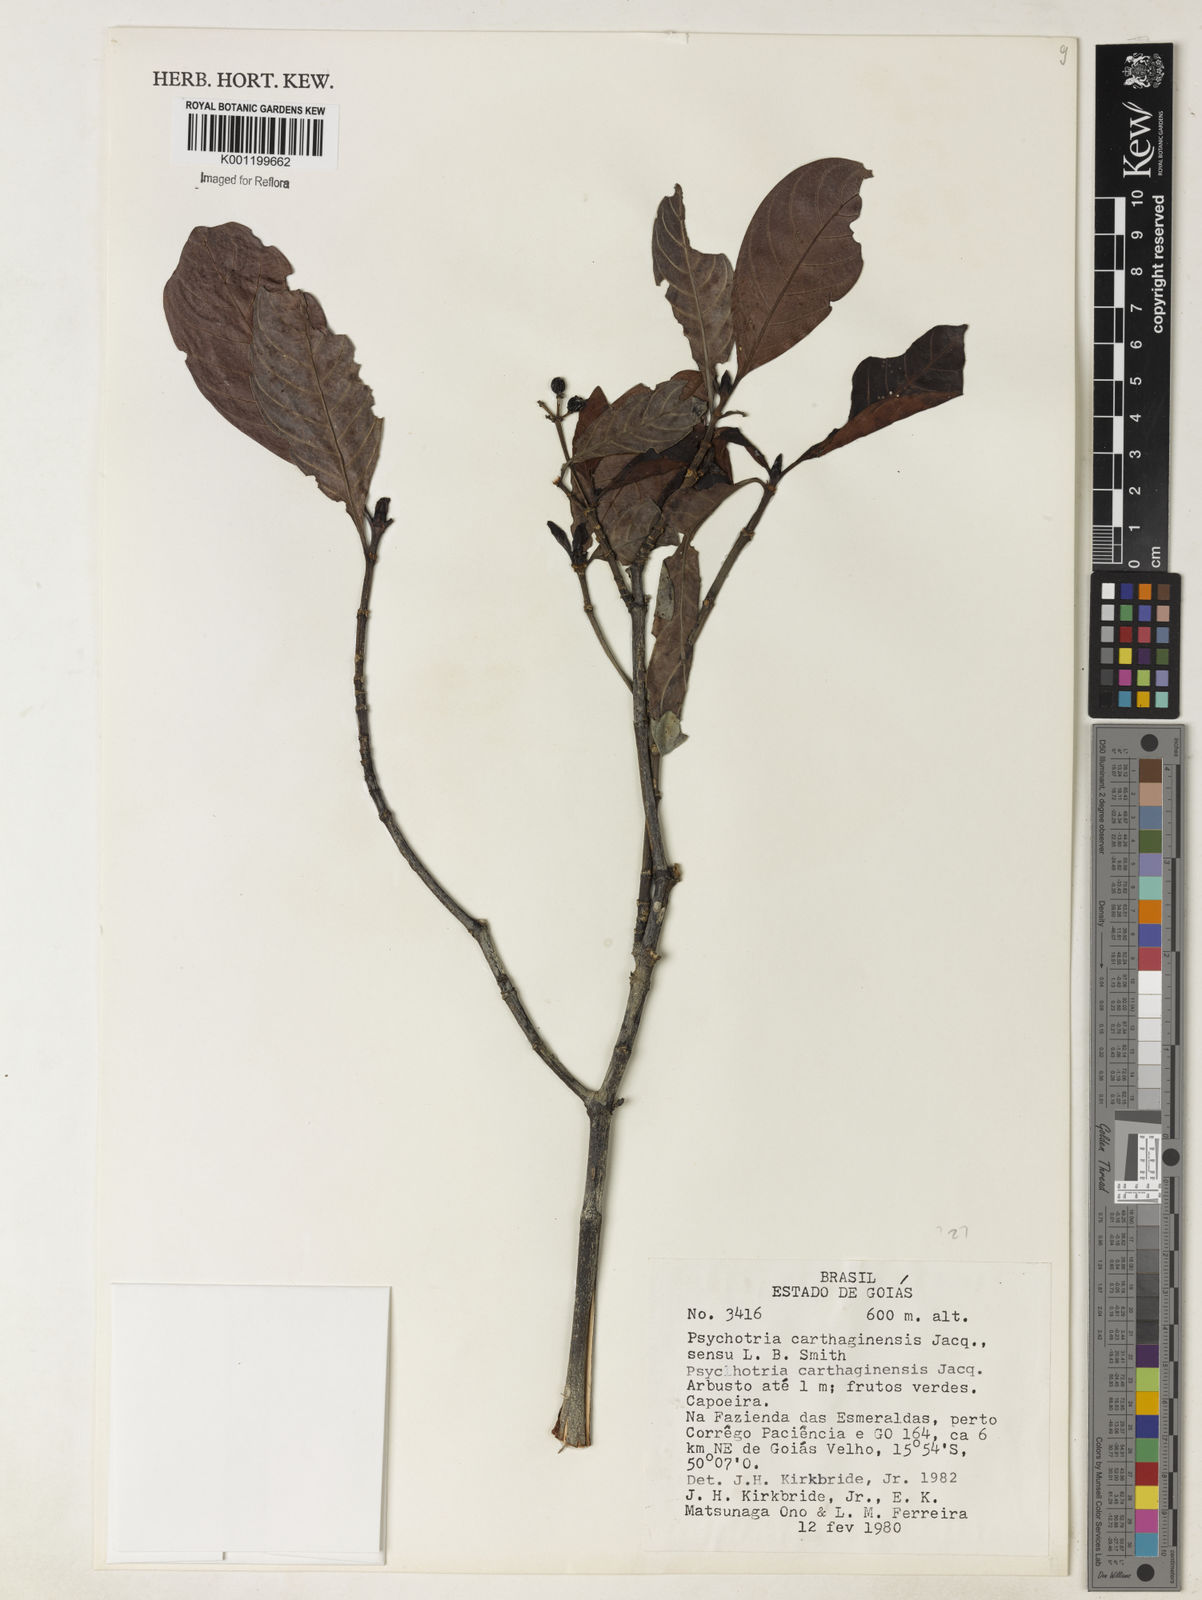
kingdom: Plantae
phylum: Tracheophyta
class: Magnoliopsida
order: Gentianales
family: Rubiaceae
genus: Psychotria
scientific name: Psychotria carthagenensis
